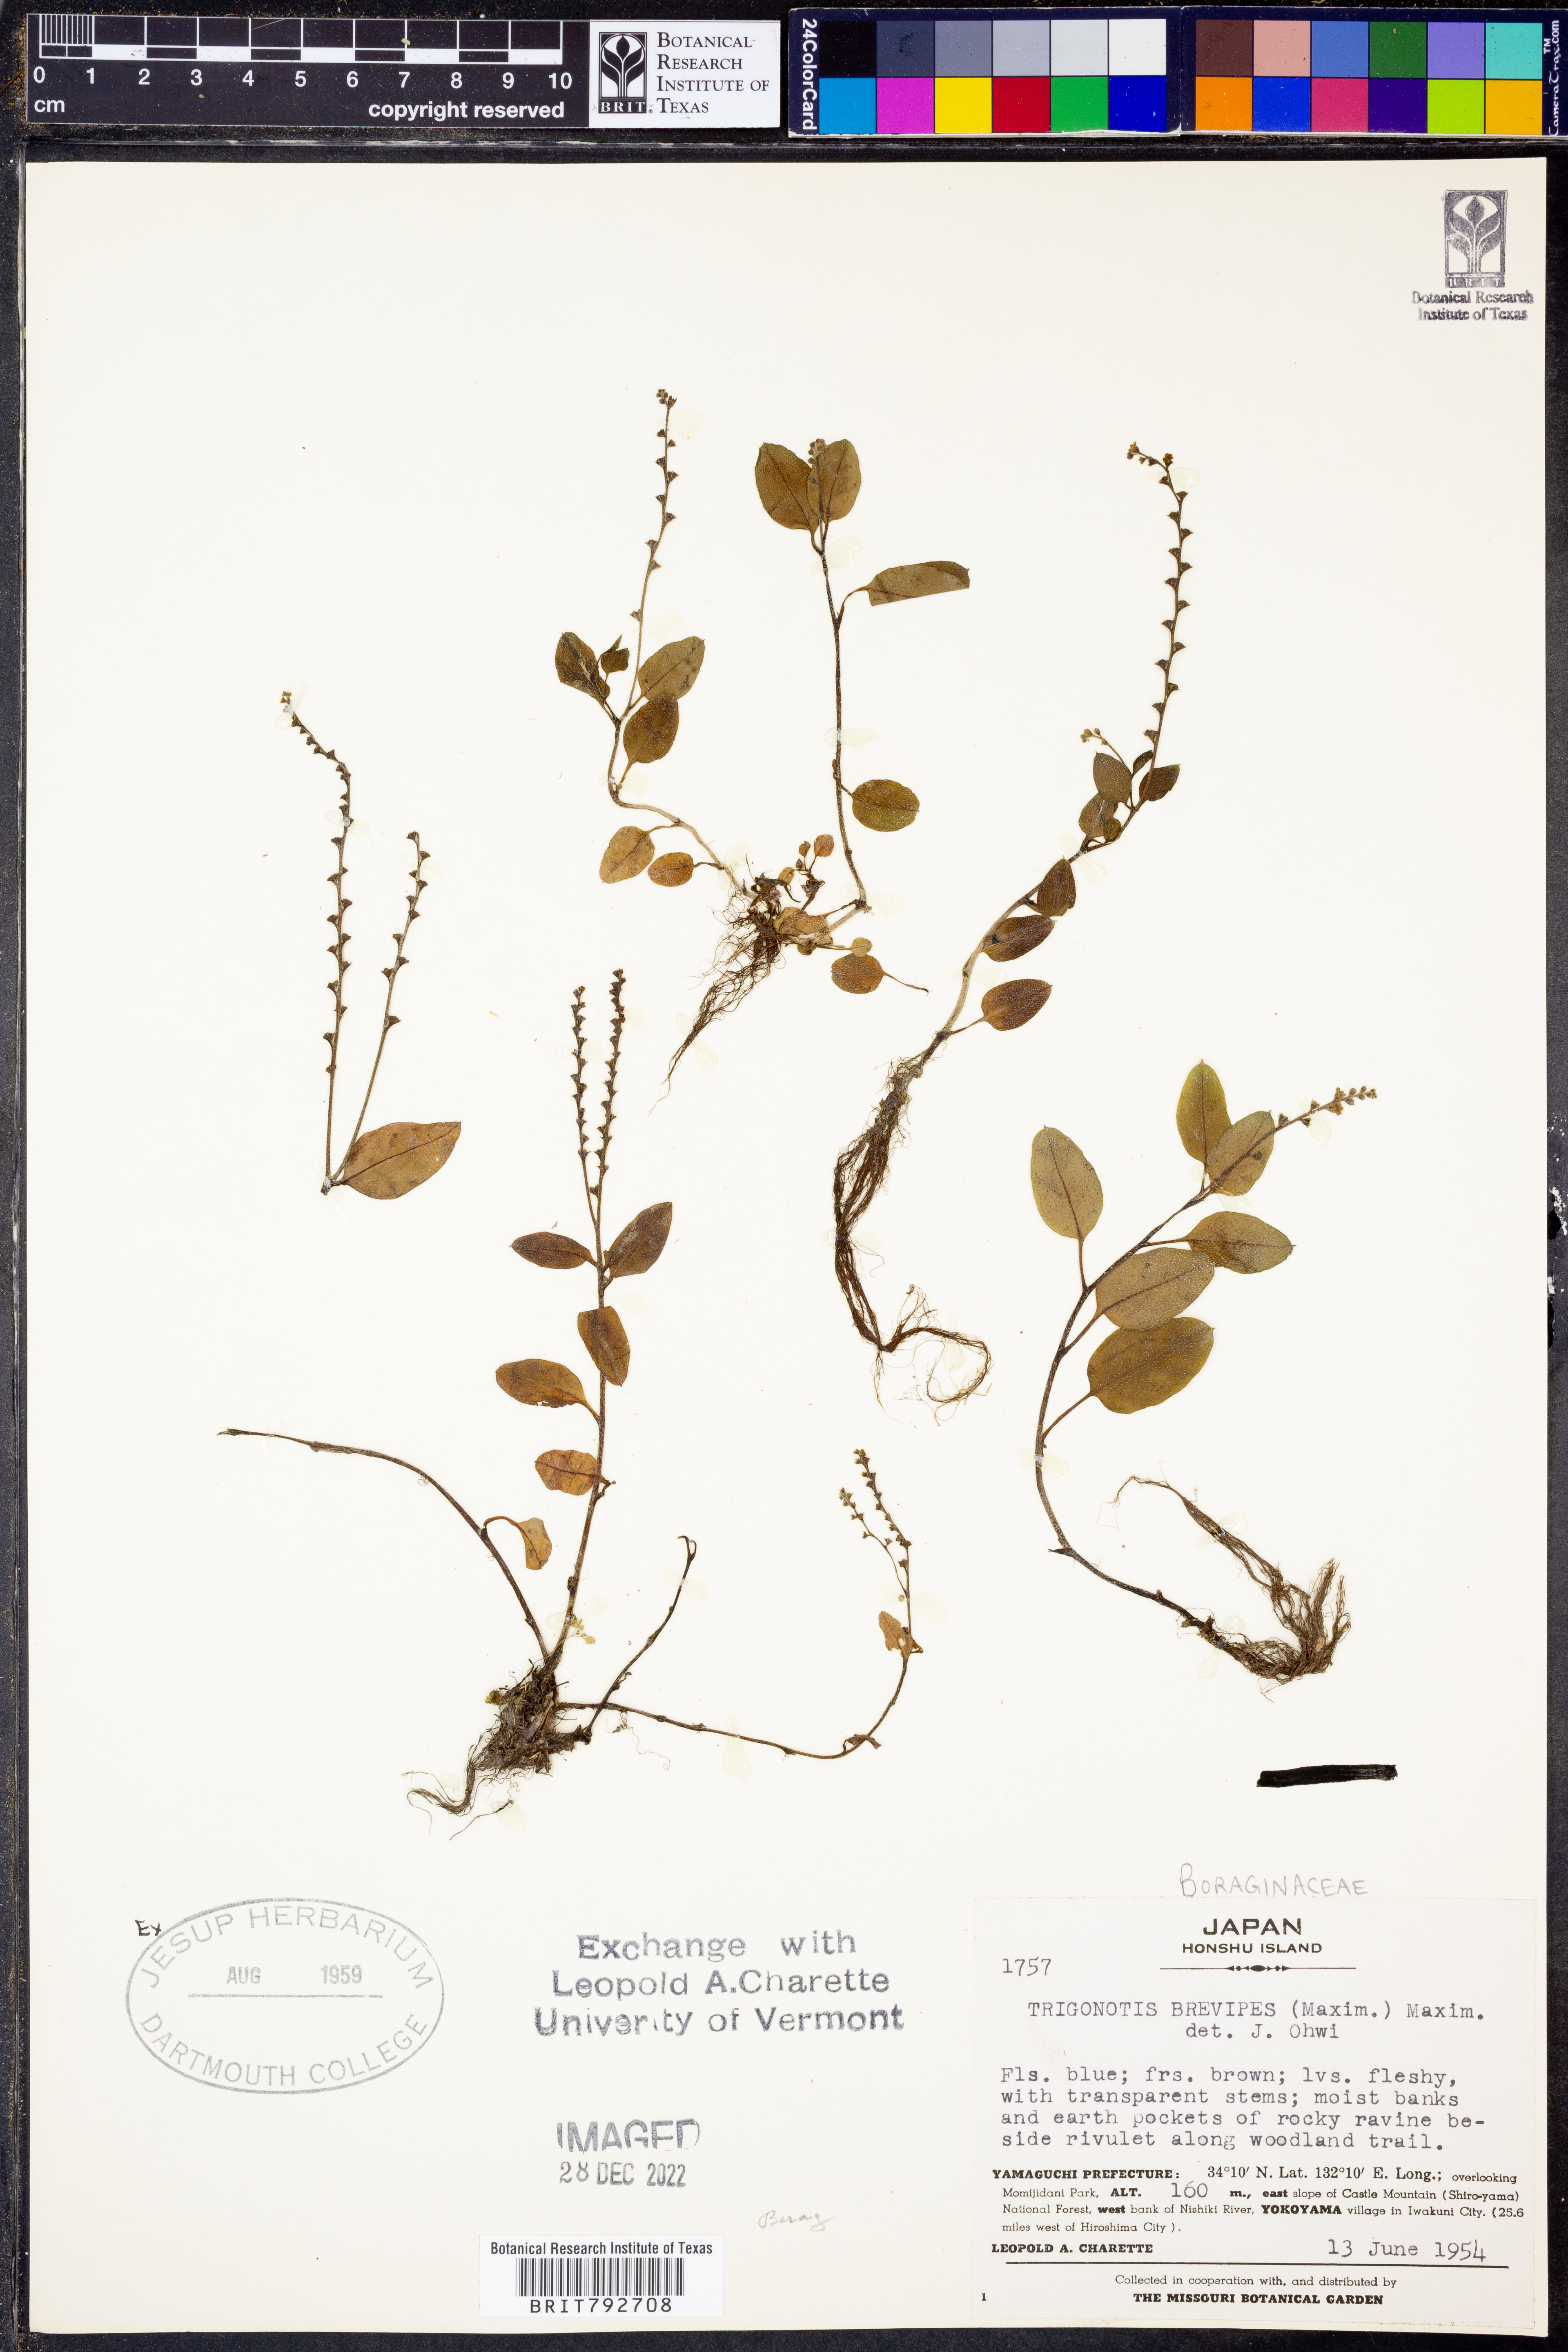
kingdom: Plantae
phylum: Tracheophyta
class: Magnoliopsida
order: Boraginales
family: Boraginaceae
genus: Trigonotis
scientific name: Trigonotis brevipes
